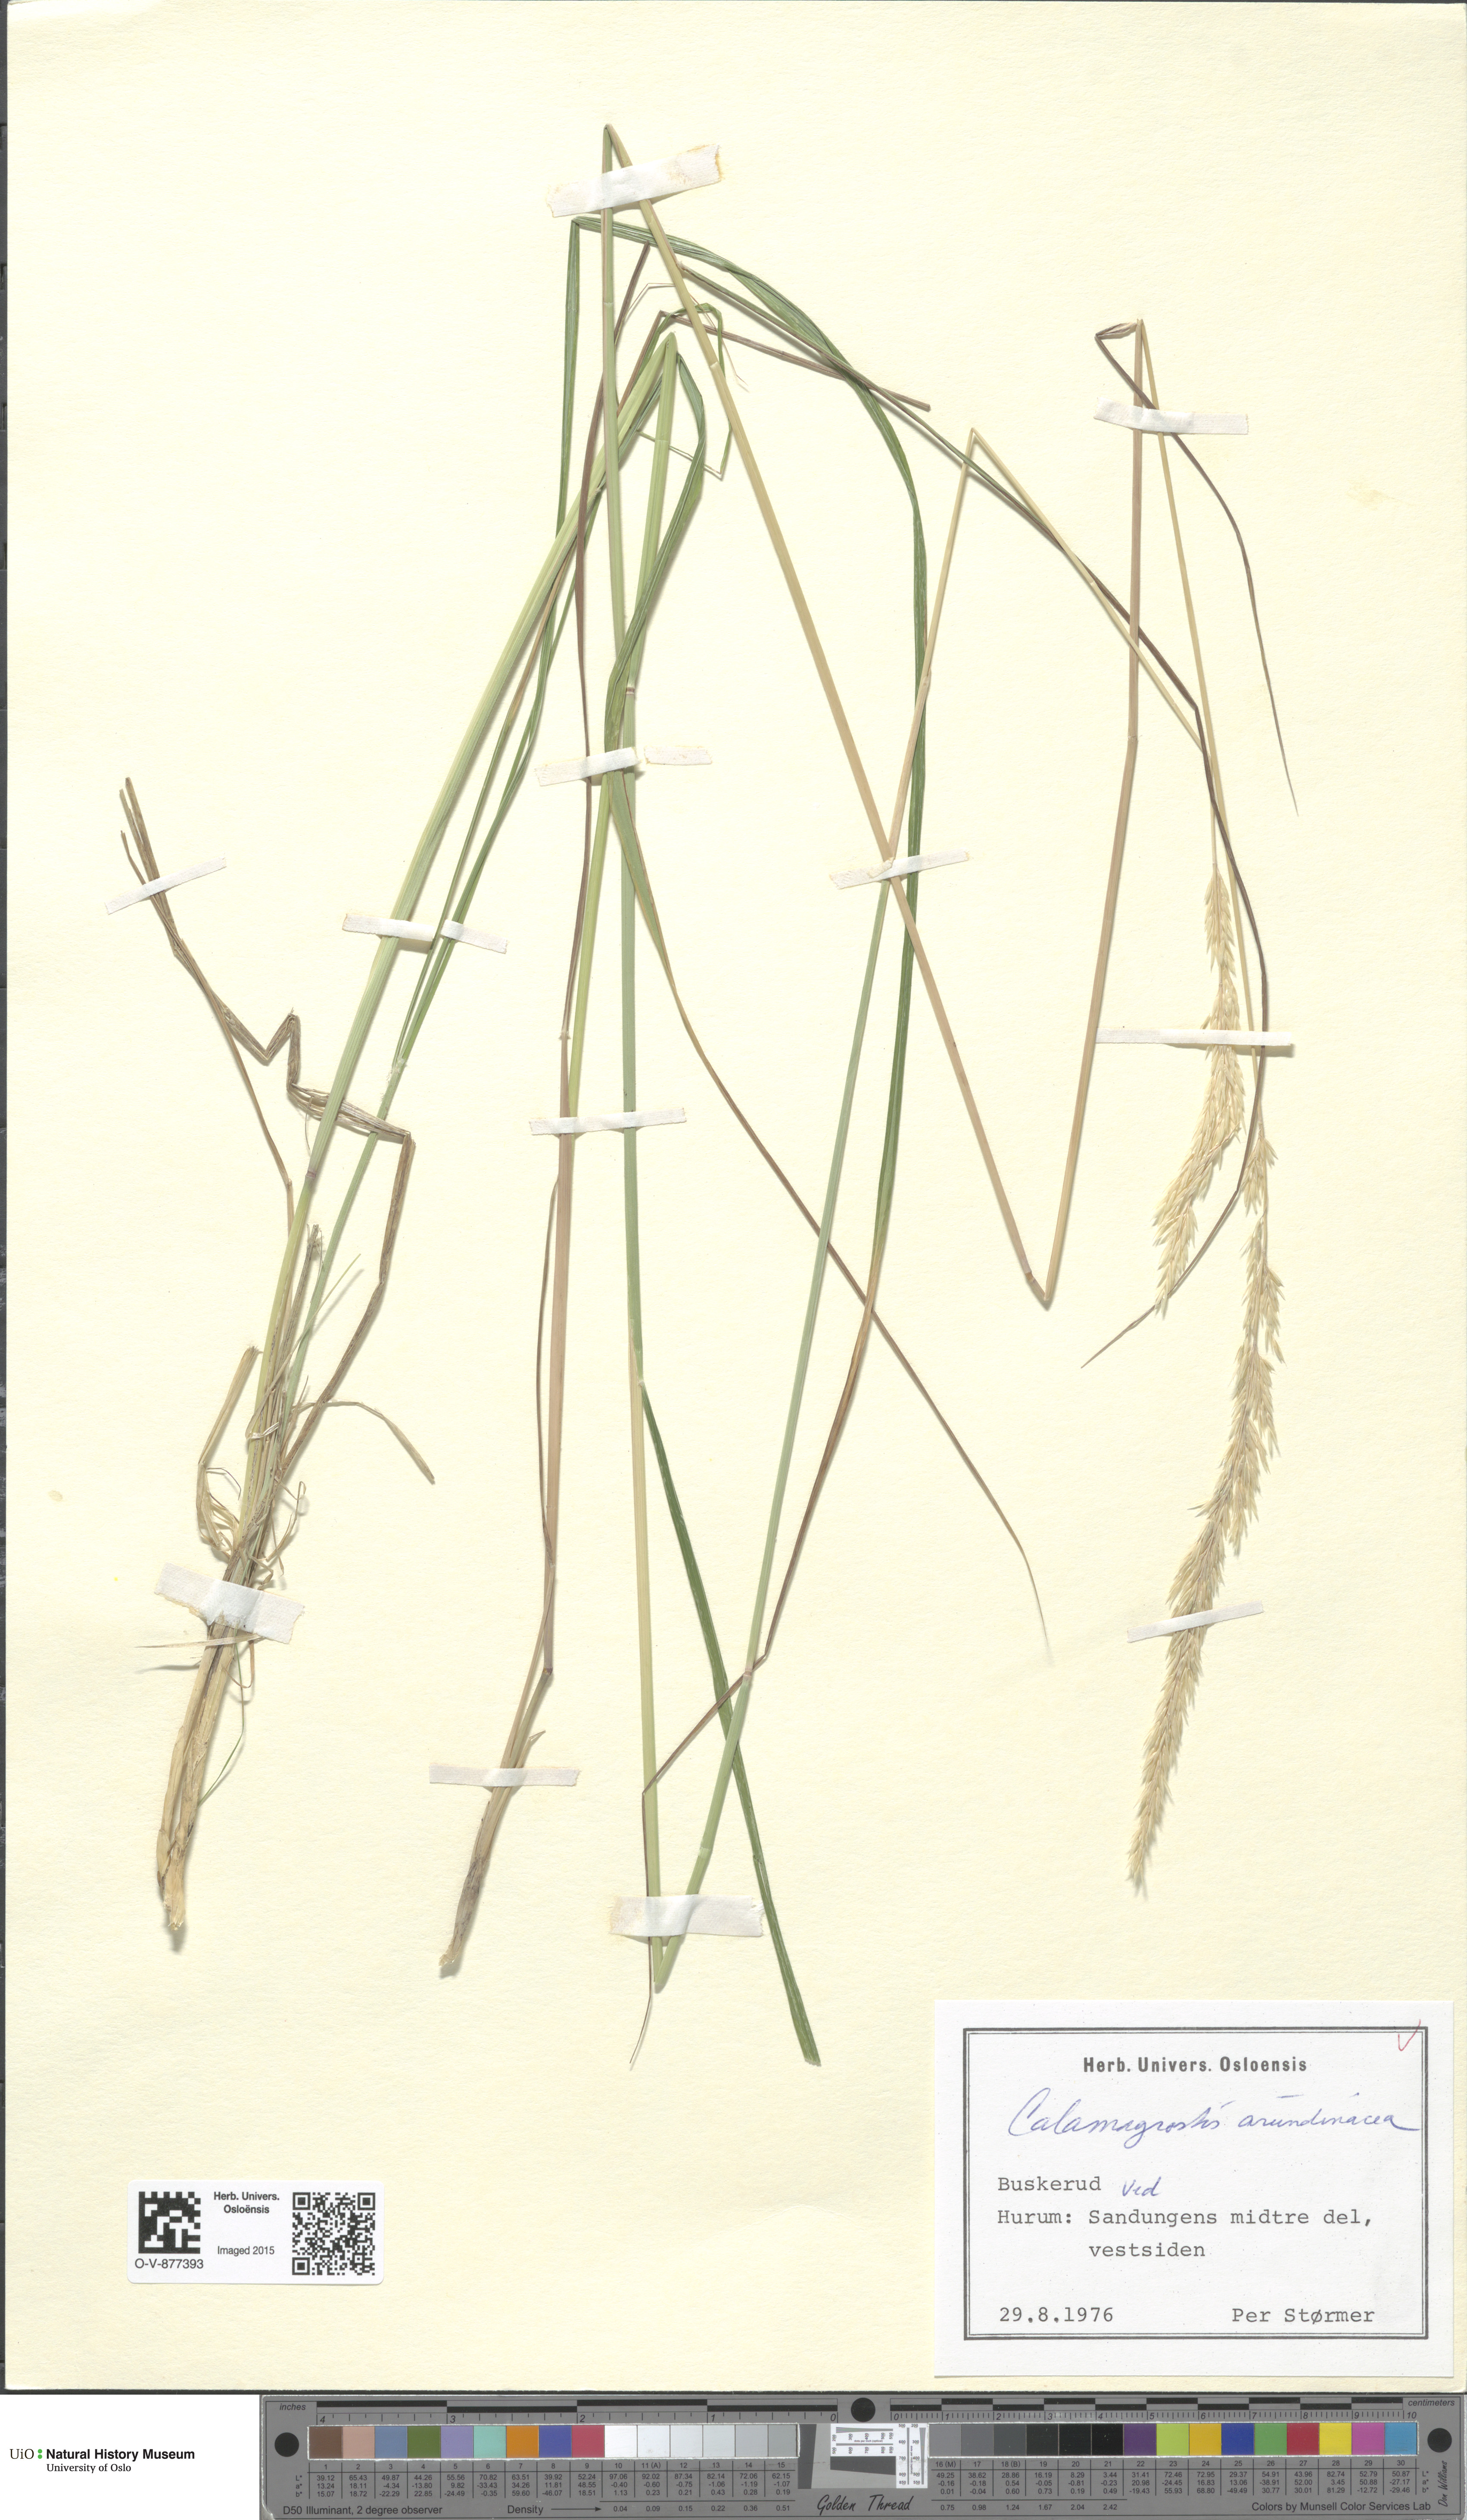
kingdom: Plantae
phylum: Tracheophyta
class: Liliopsida
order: Poales
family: Poaceae
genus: Calamagrostis
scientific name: Calamagrostis arundinacea
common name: Metskastik
